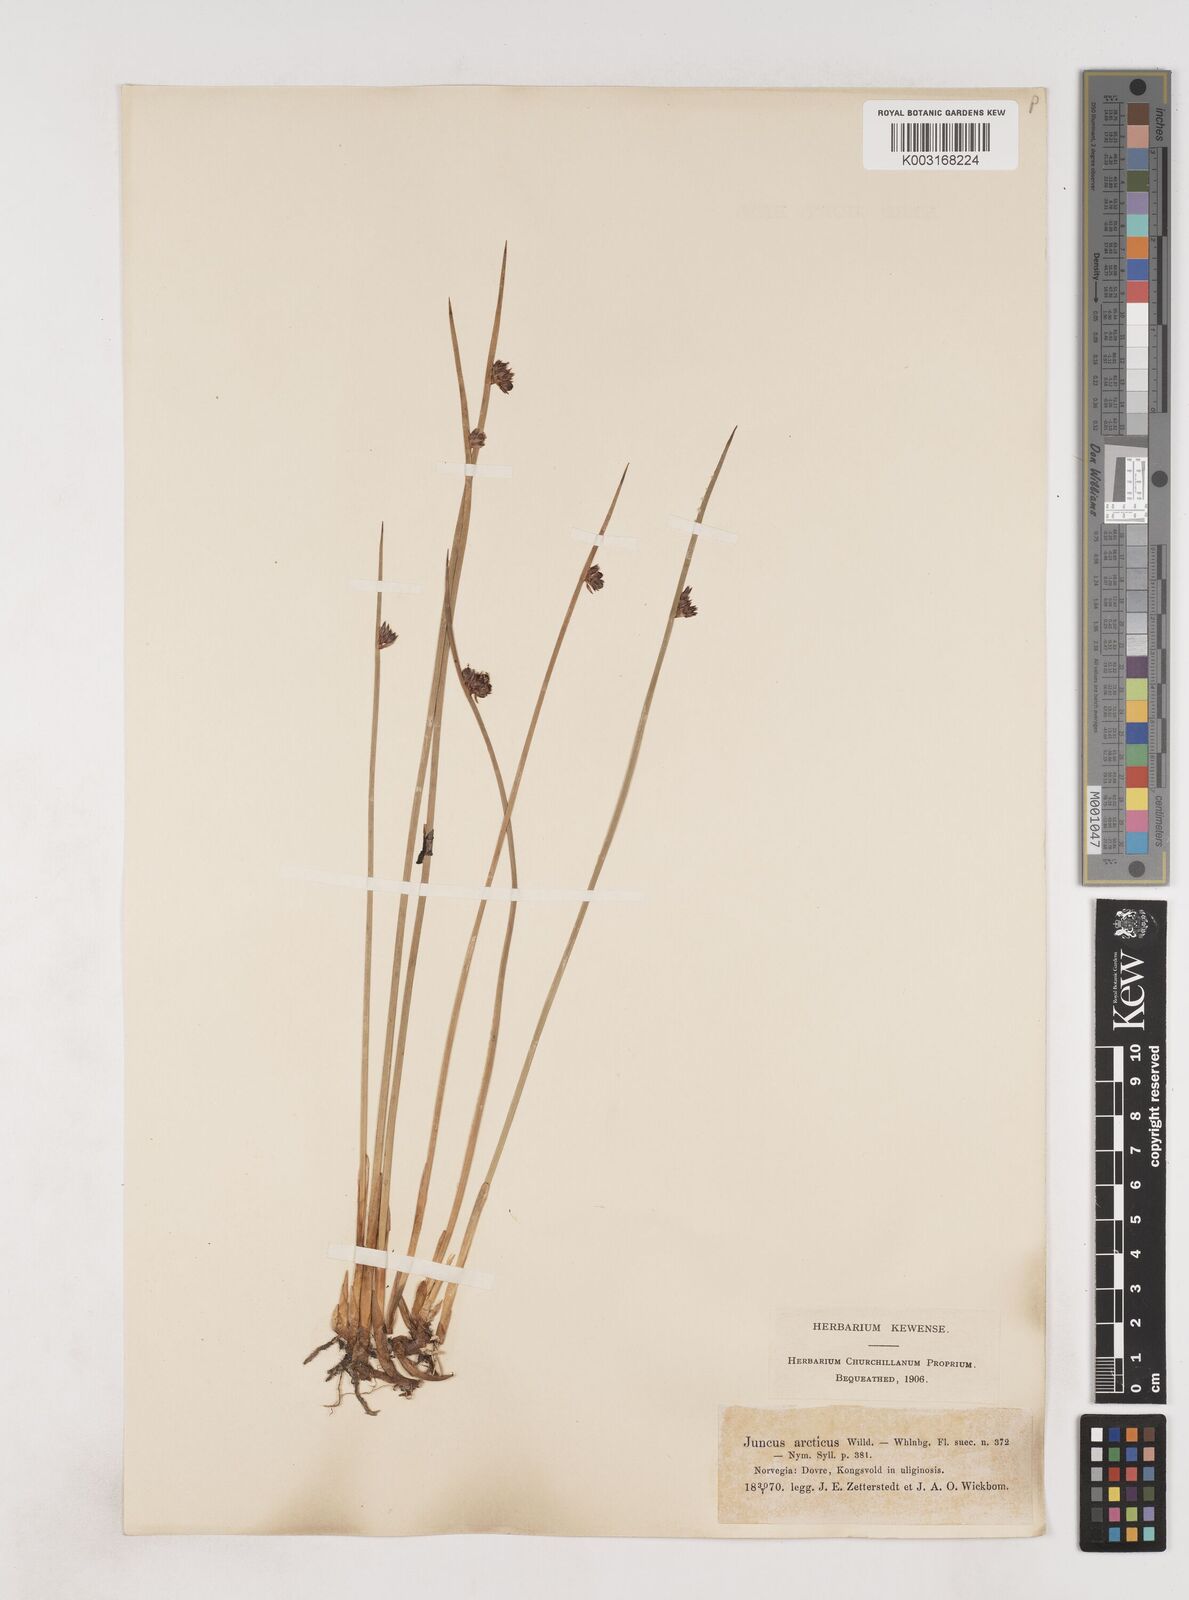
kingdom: Plantae
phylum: Tracheophyta
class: Liliopsida
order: Poales
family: Juncaceae
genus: Juncus
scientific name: Juncus arcticus
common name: Arctic rush
